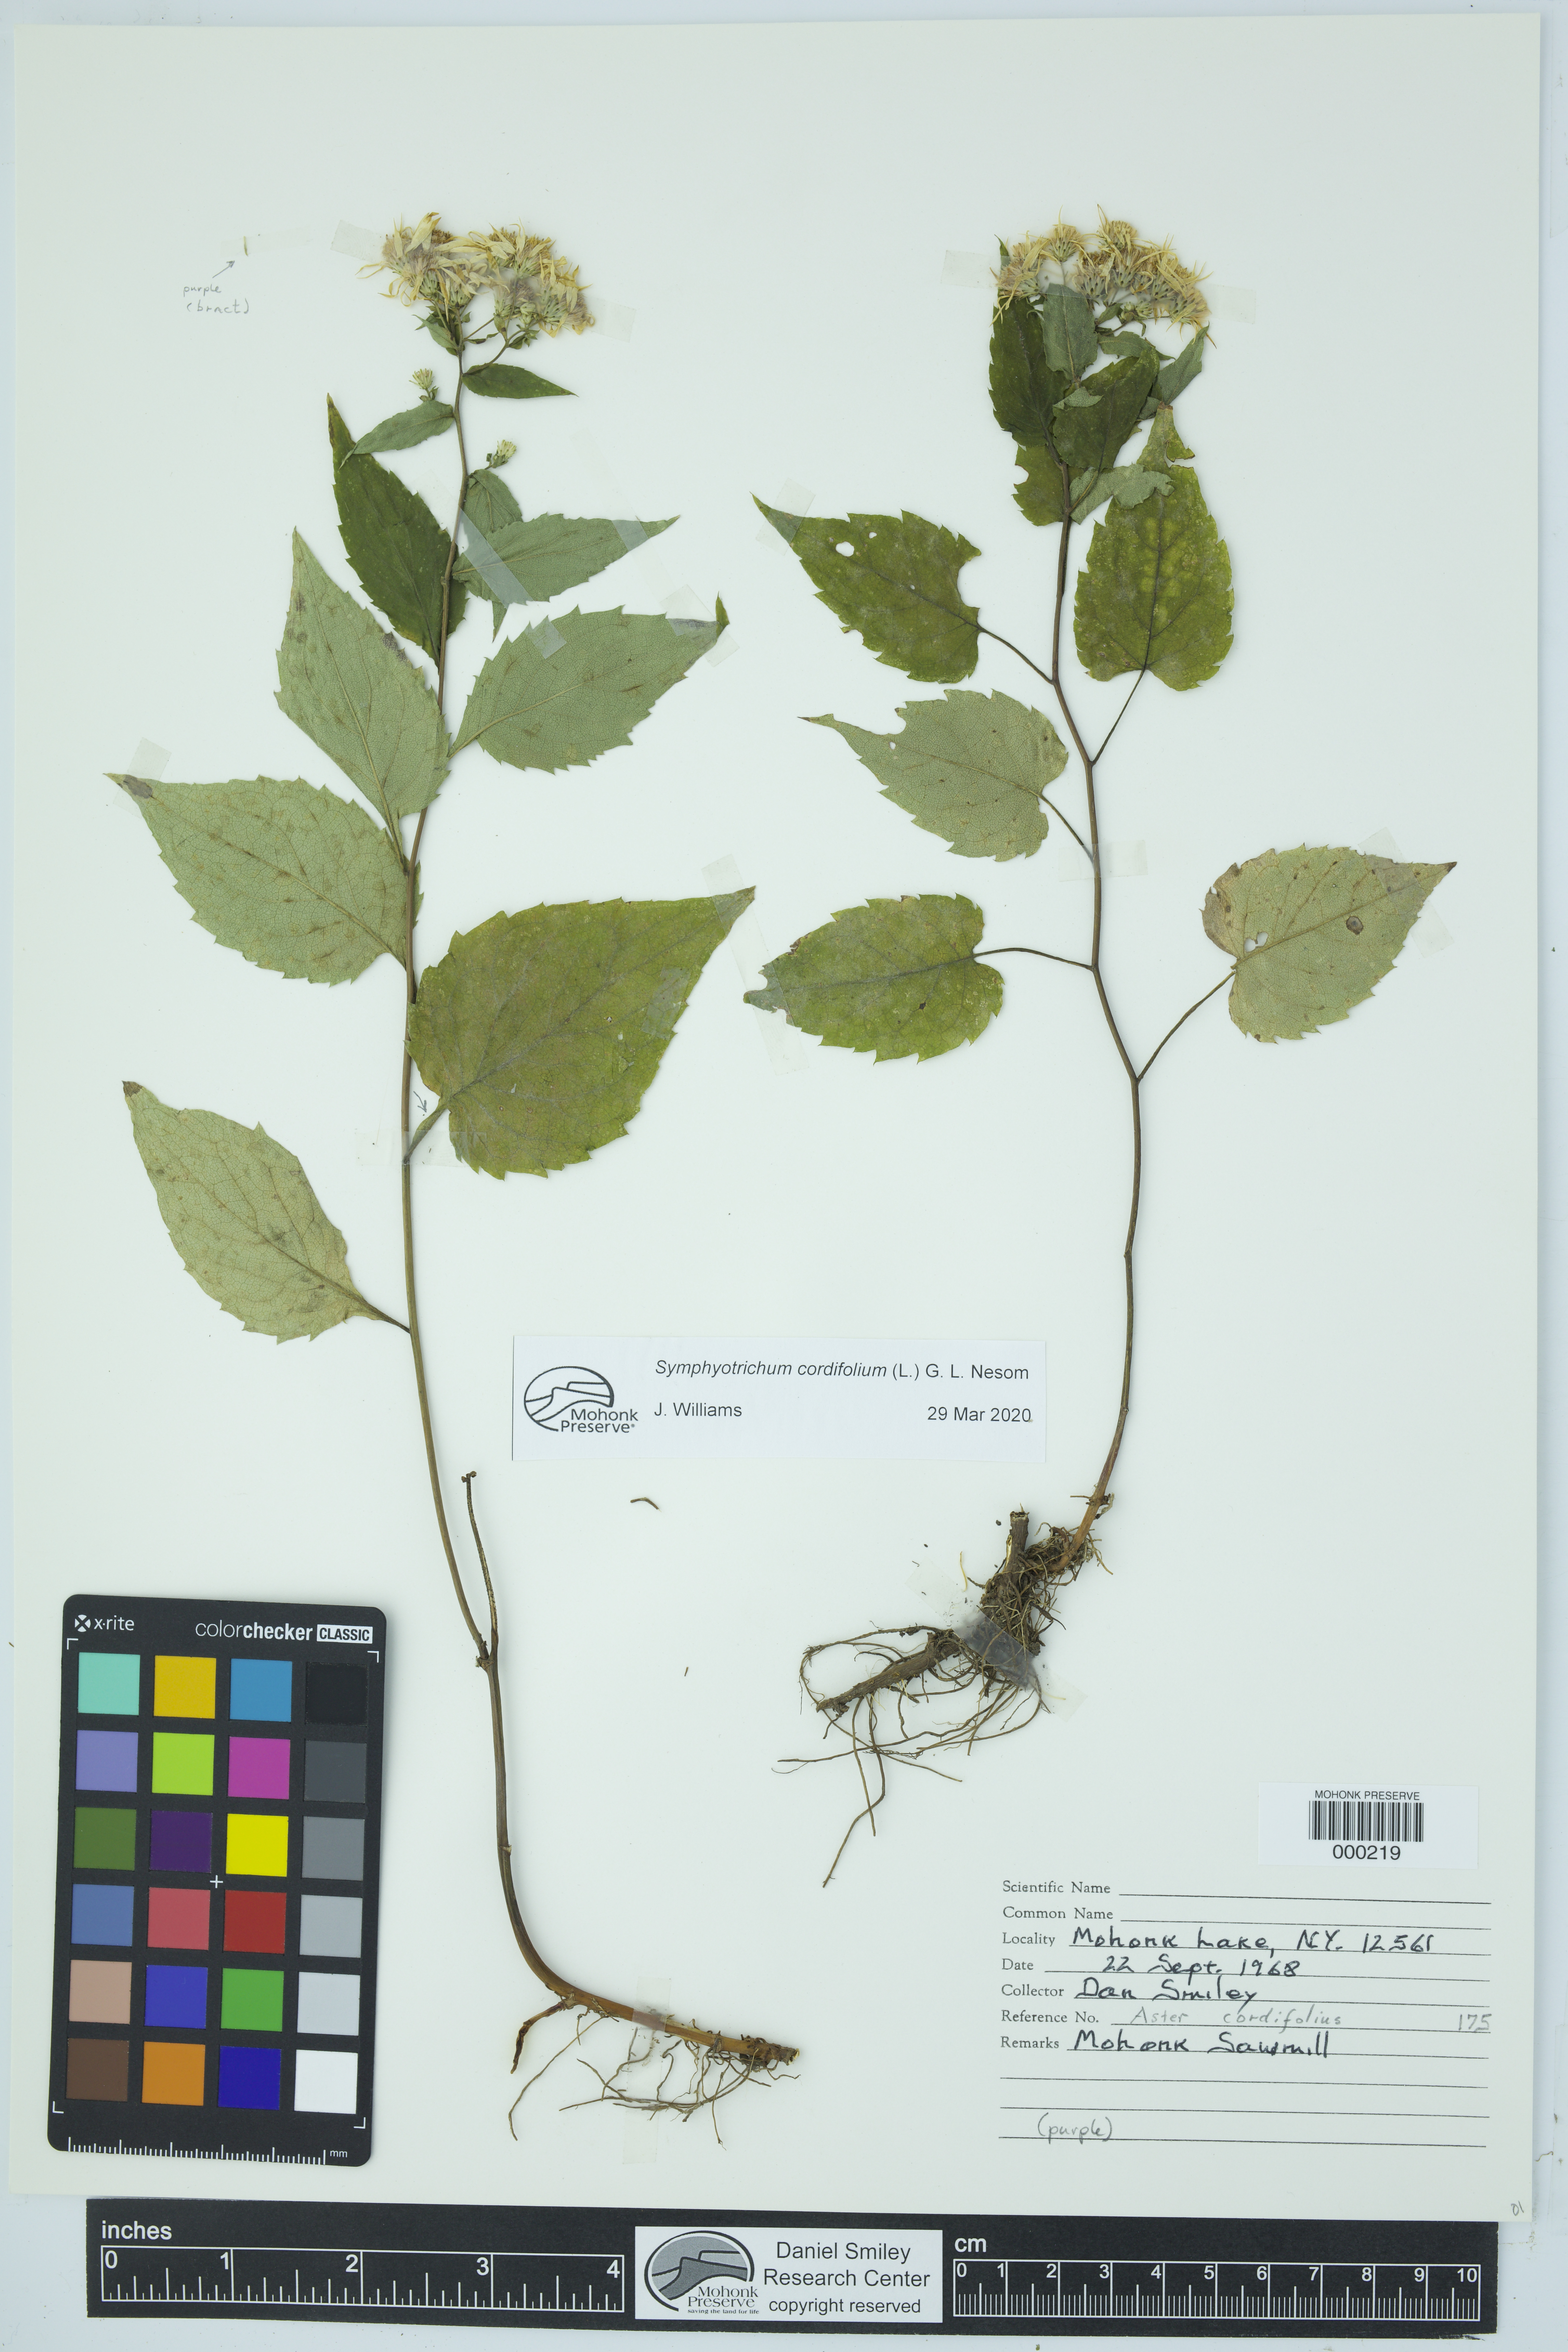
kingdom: Plantae
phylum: Tracheophyta
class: Magnoliopsida
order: Asterales
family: Asteraceae
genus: Symphyotrichum
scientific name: Symphyotrichum cordifolium
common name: Beeweed
